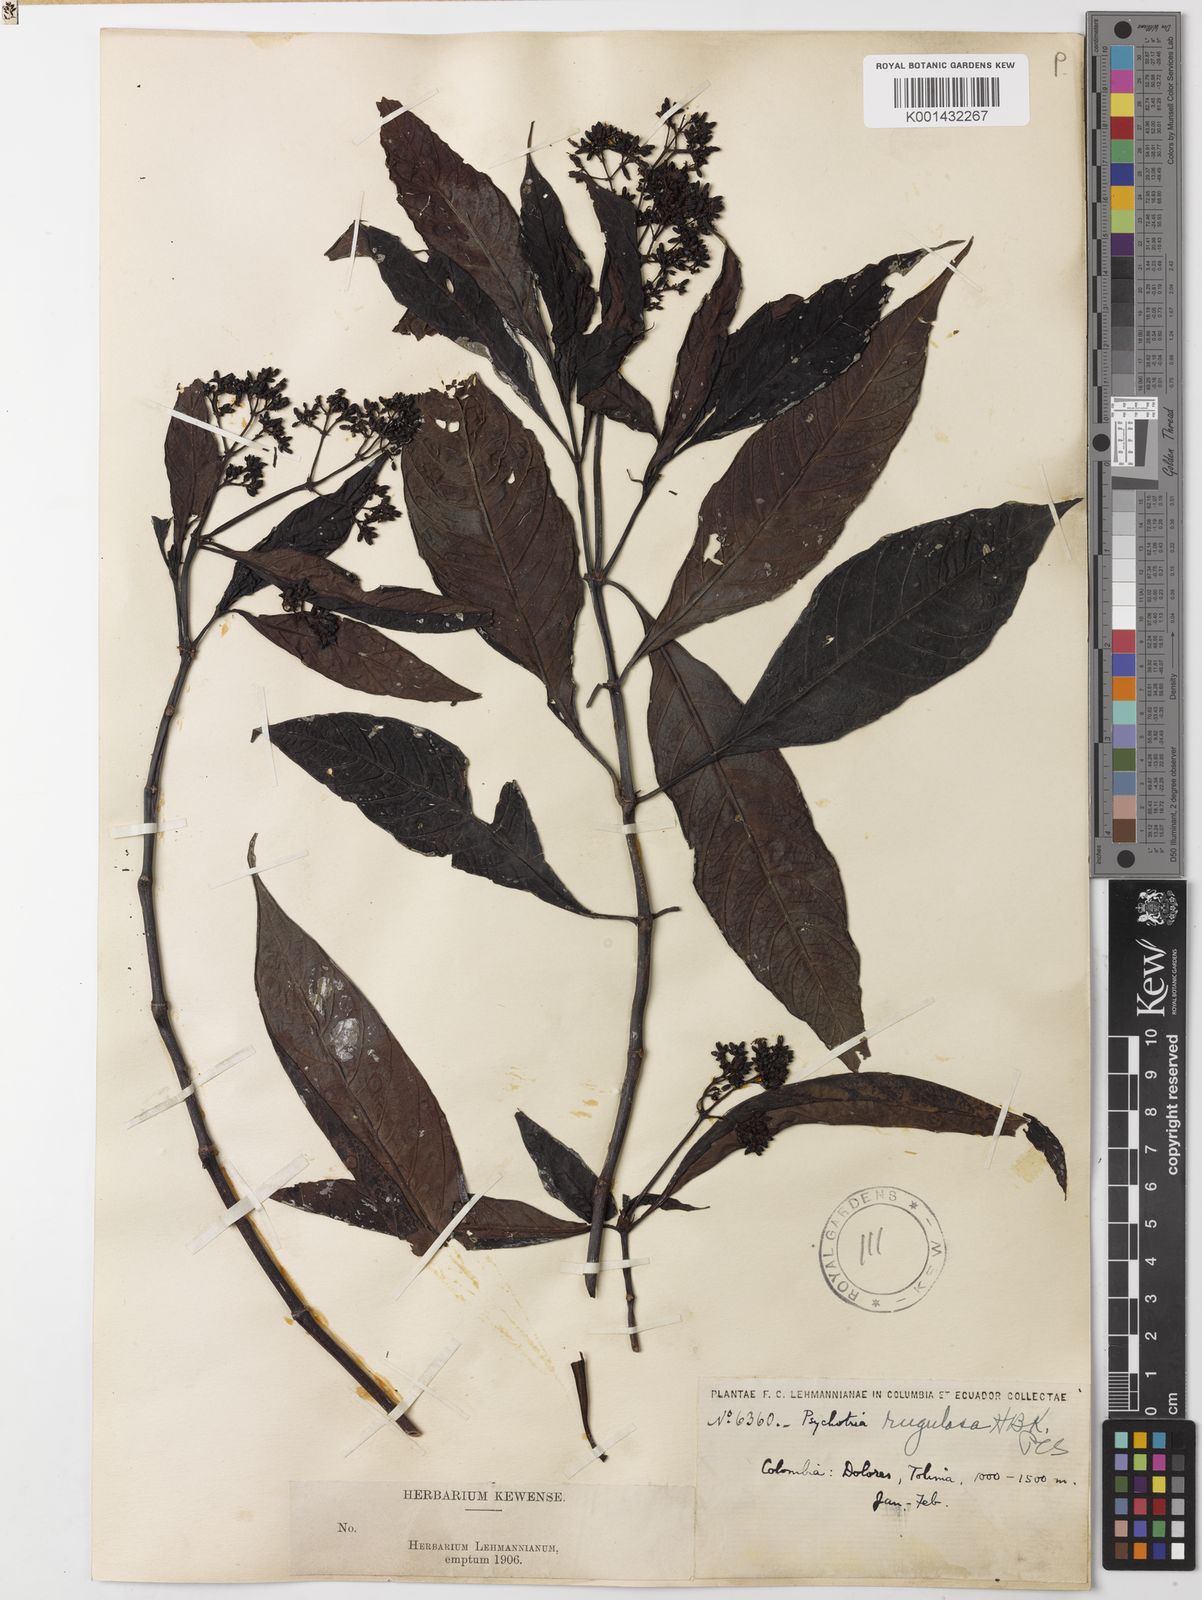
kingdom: Plantae
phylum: Tracheophyta
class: Magnoliopsida
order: Gentianales
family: Rubiaceae
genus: Psychotria
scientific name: Psychotria rugulosa
